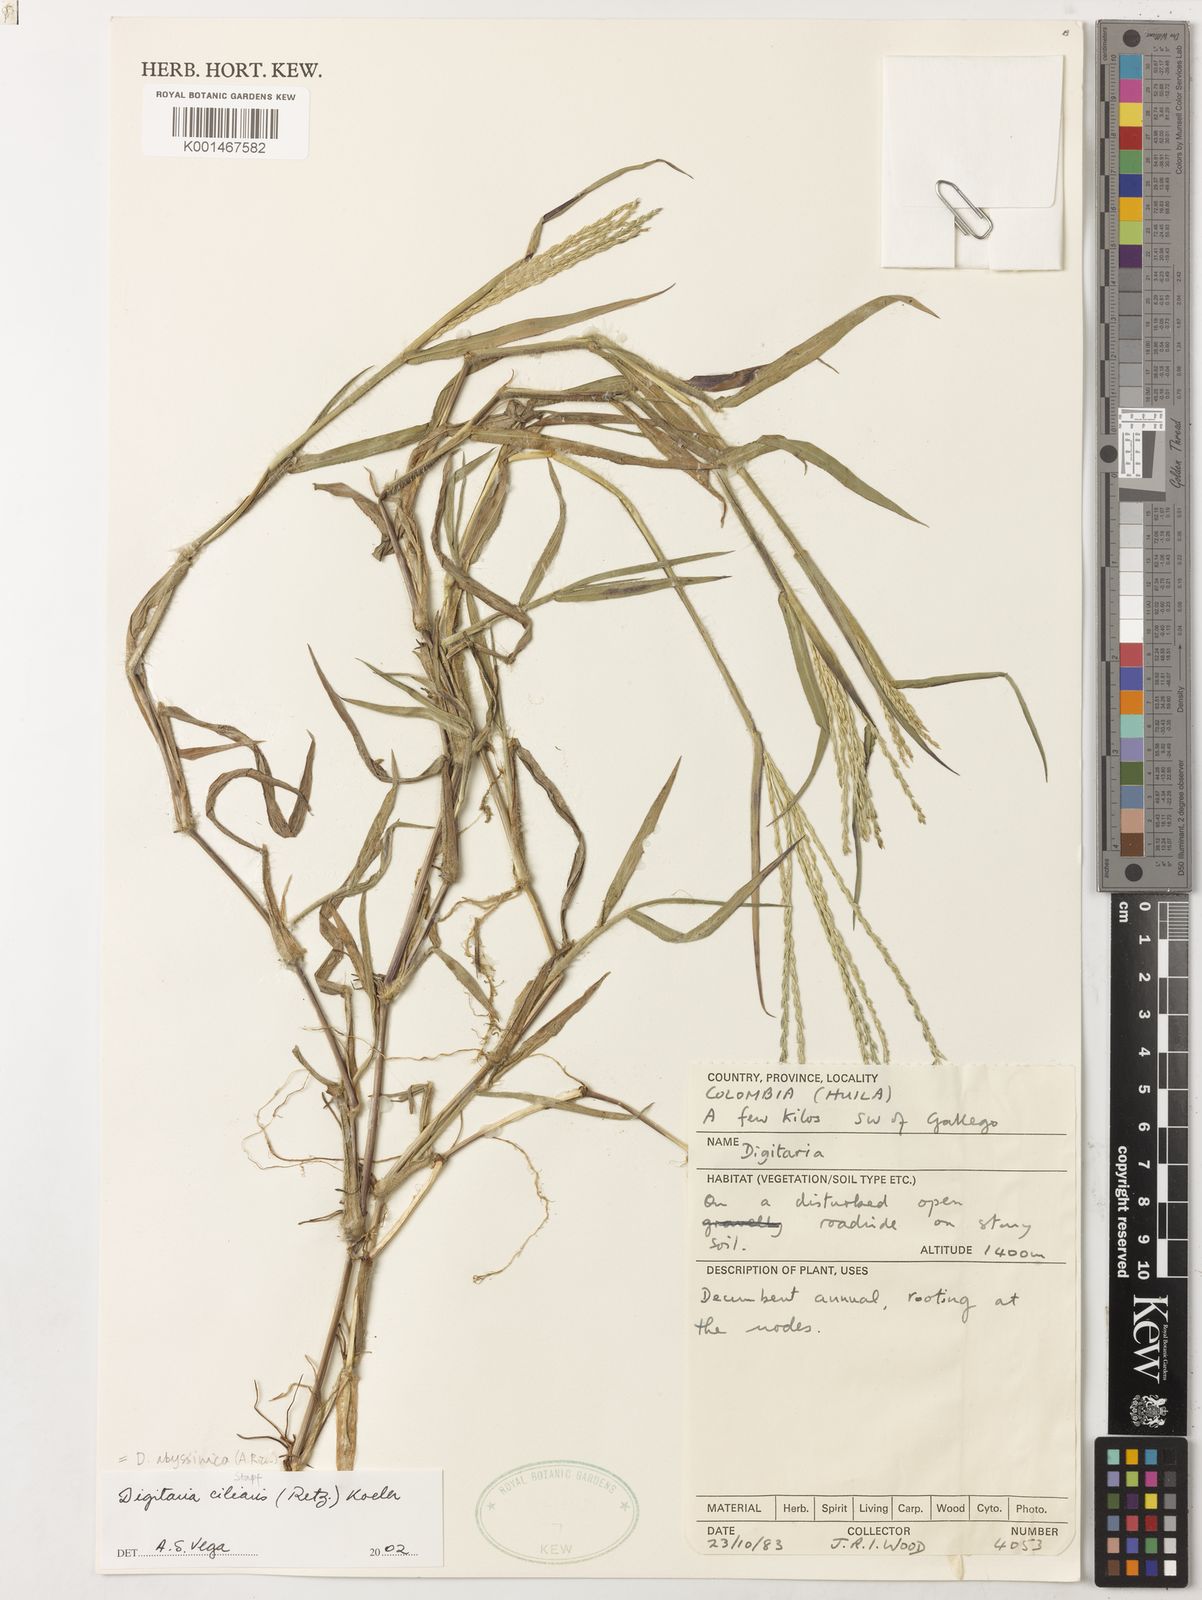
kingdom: Plantae
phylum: Tracheophyta
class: Liliopsida
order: Poales
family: Poaceae
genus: Digitaria
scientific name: Digitaria ciliaris
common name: Tropical finger-grass
